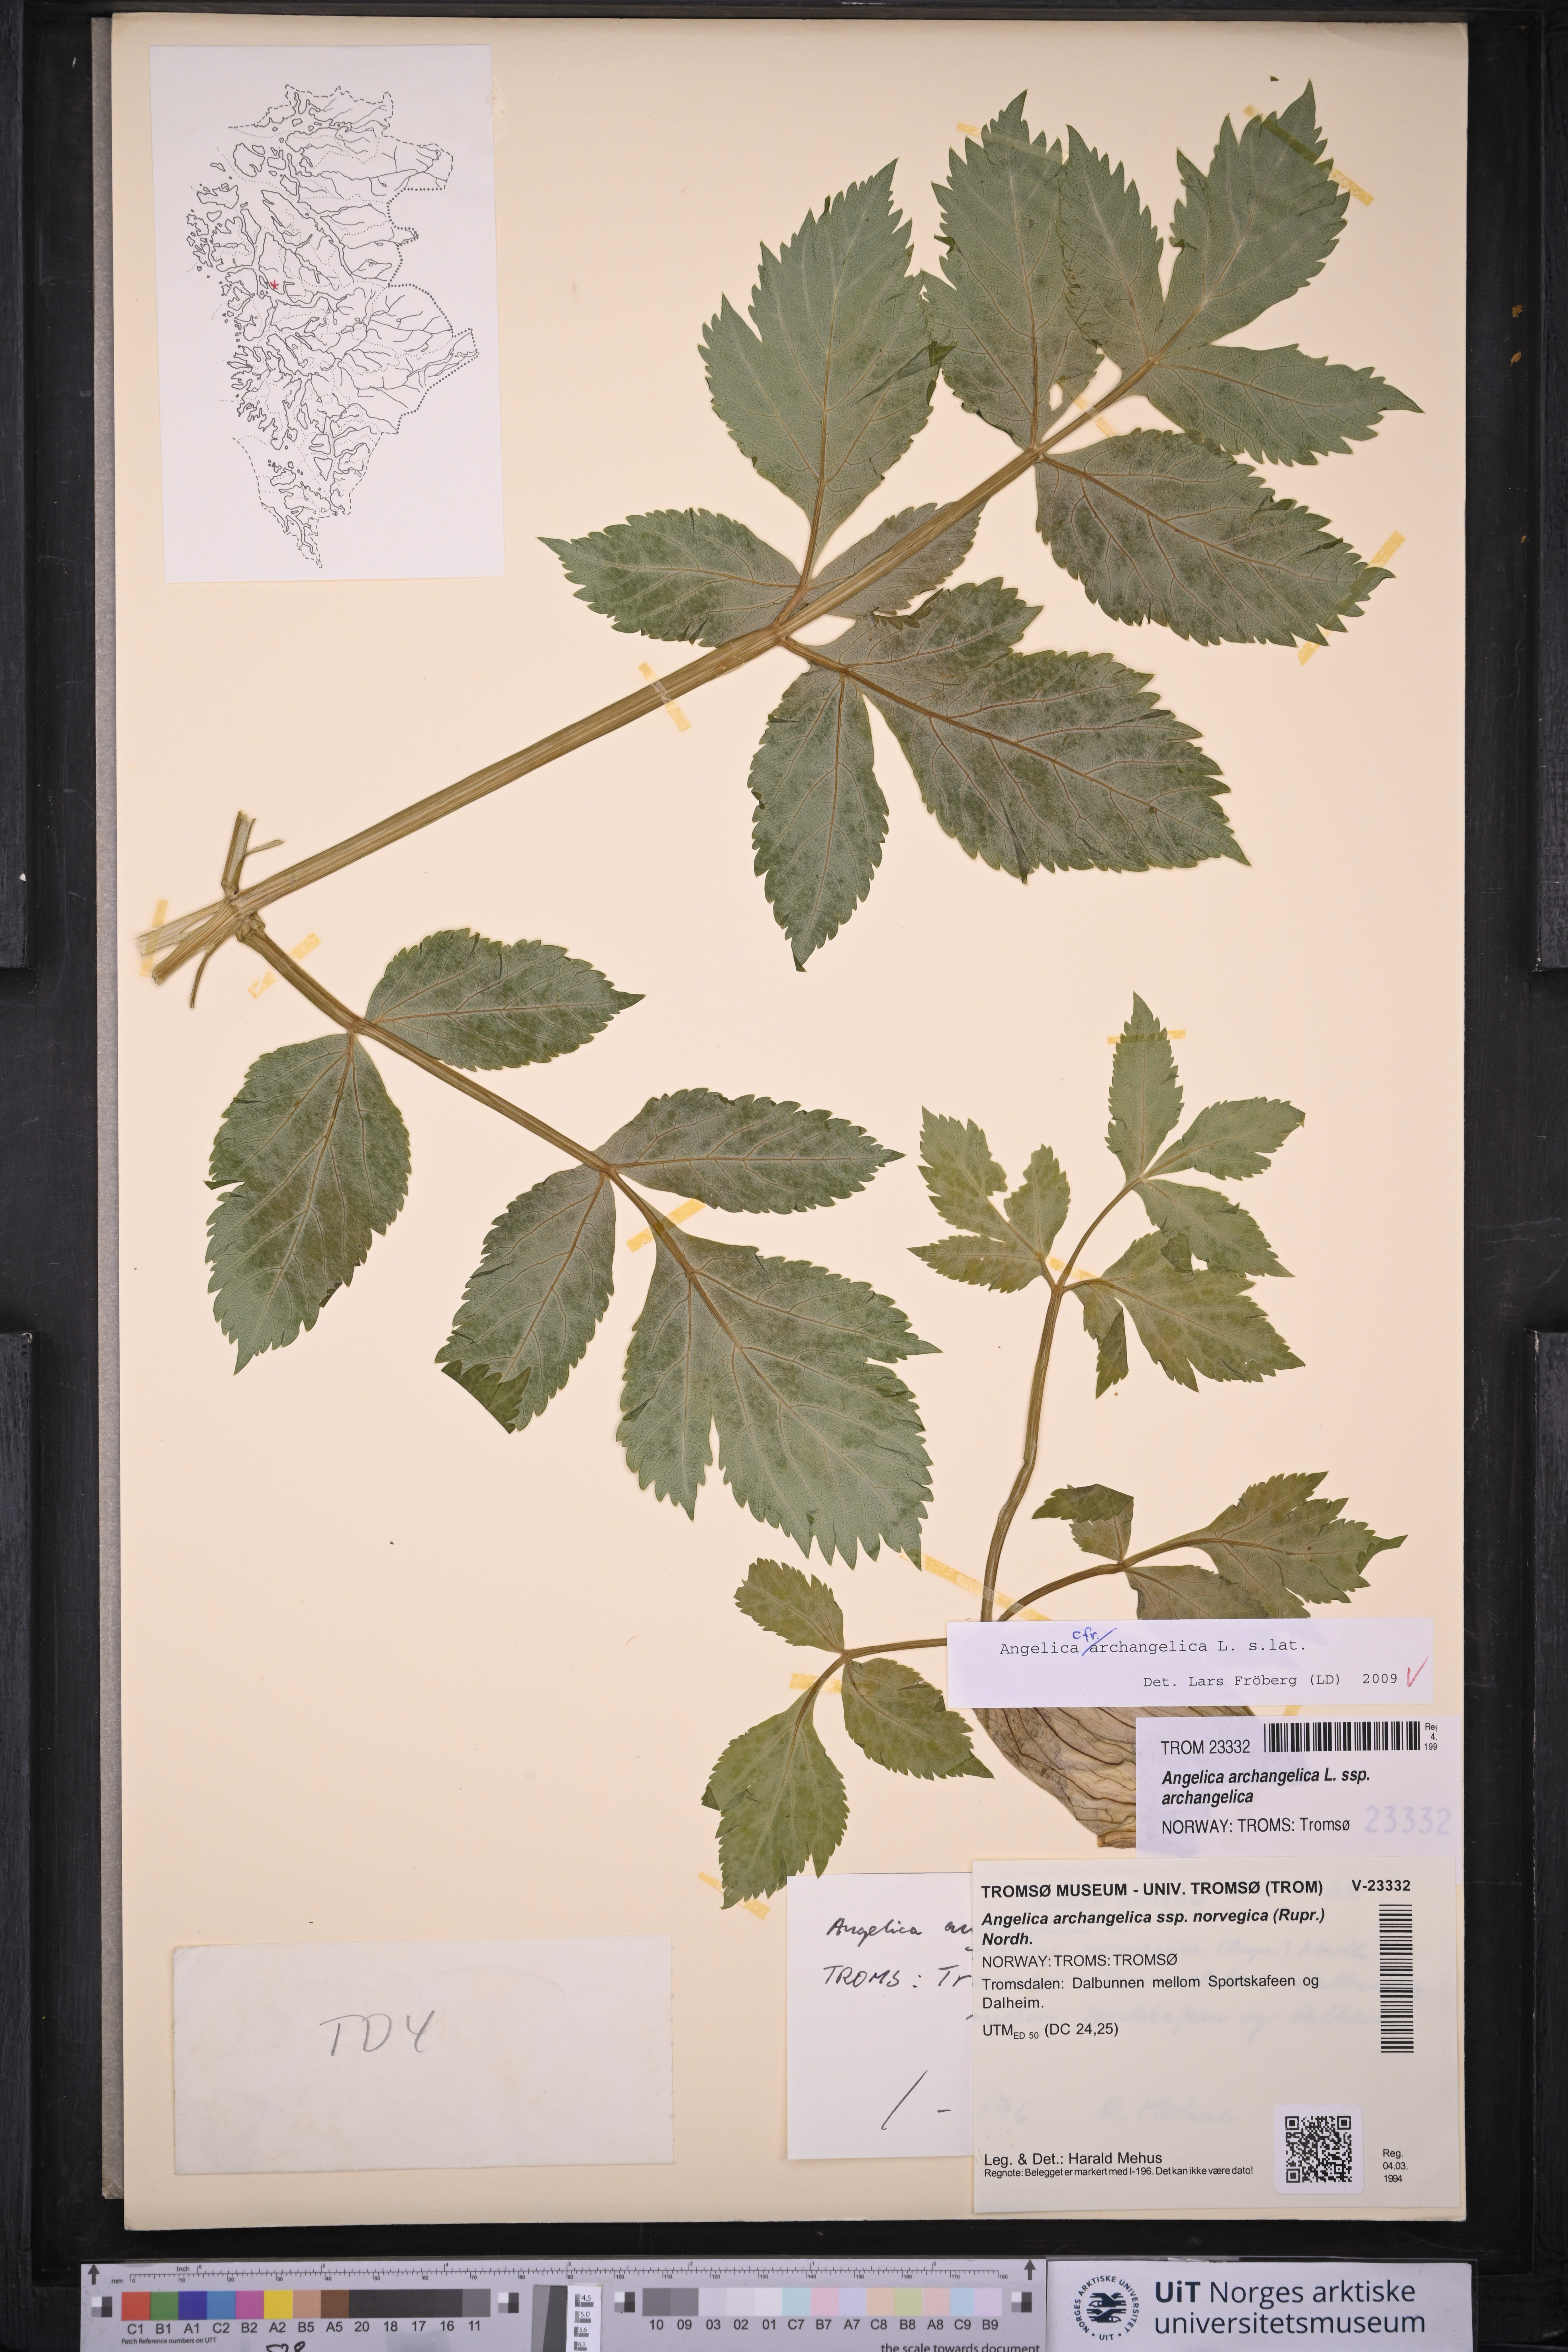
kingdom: Plantae
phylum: Tracheophyta
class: Magnoliopsida
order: Apiales
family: Apiaceae
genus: Angelica
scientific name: Angelica archangelica
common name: Garden angelica
